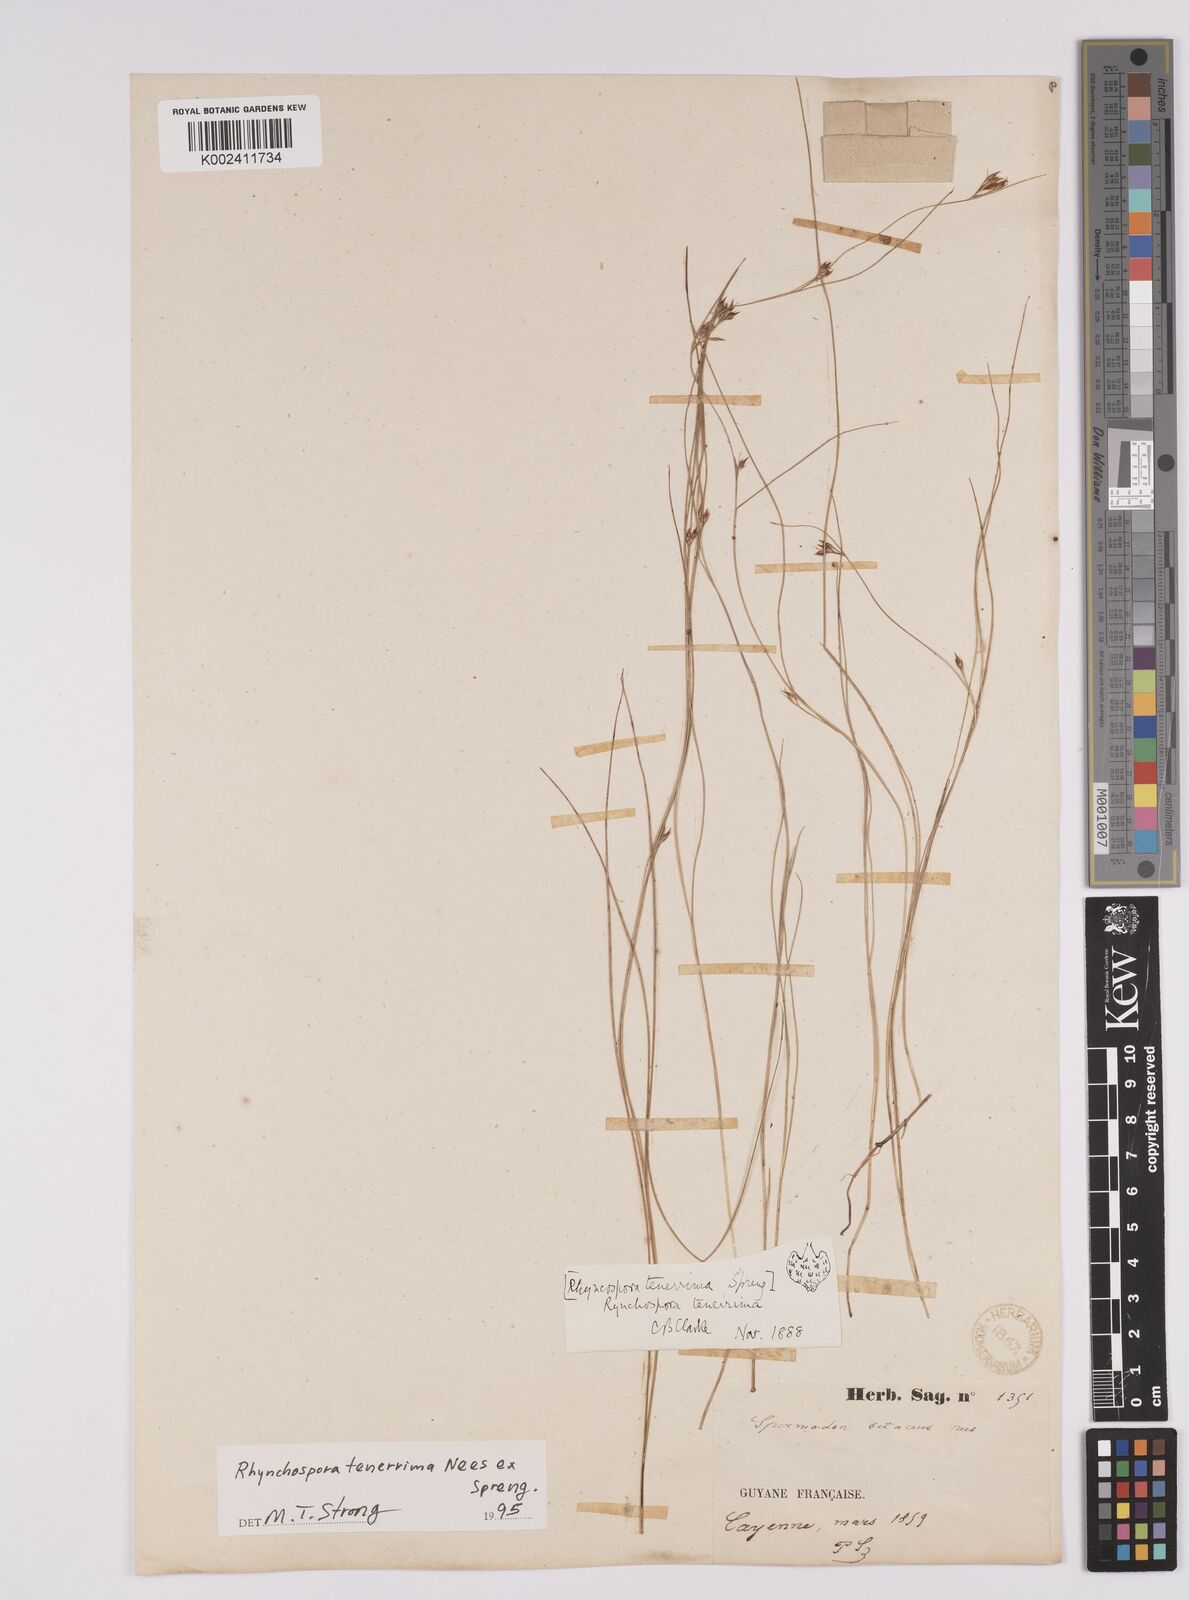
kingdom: Plantae
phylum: Tracheophyta
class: Liliopsida
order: Poales
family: Cyperaceae
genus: Rhynchospora
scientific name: Rhynchospora tenerrima
